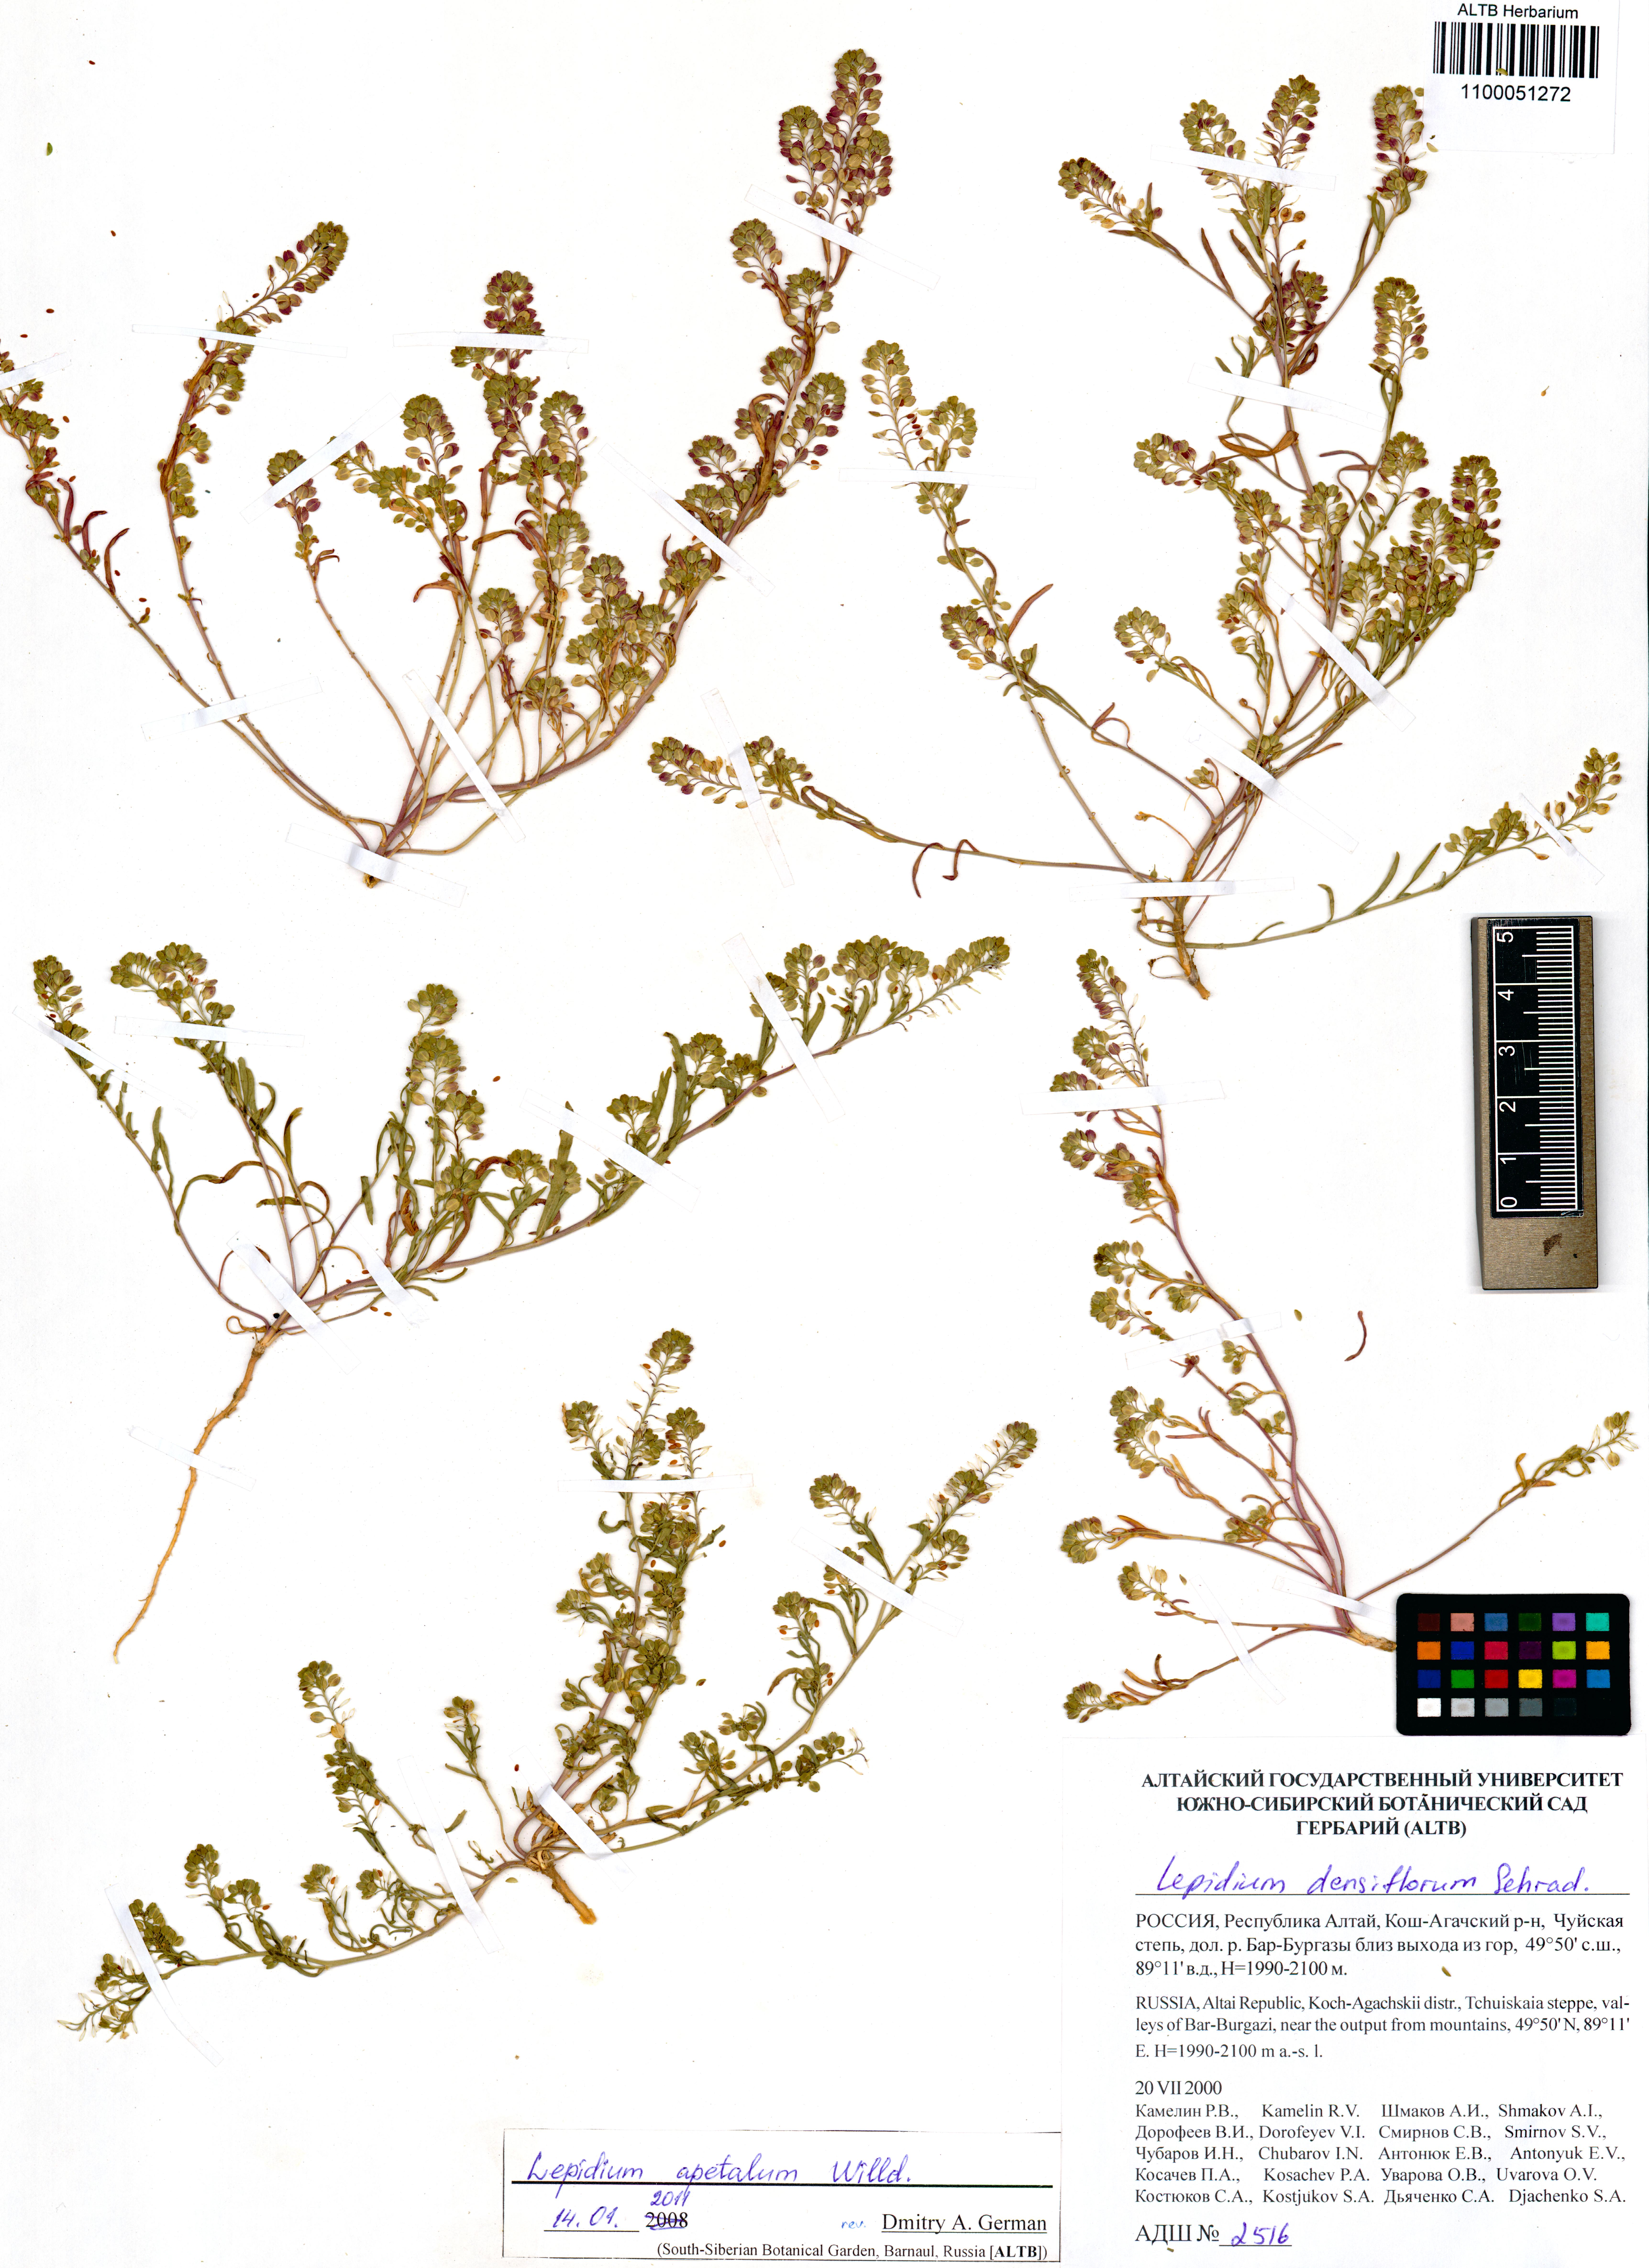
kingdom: Plantae
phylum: Tracheophyta
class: Magnoliopsida
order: Brassicales
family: Brassicaceae
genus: Lepidium
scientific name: Lepidium apetalum
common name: Pepperweed
